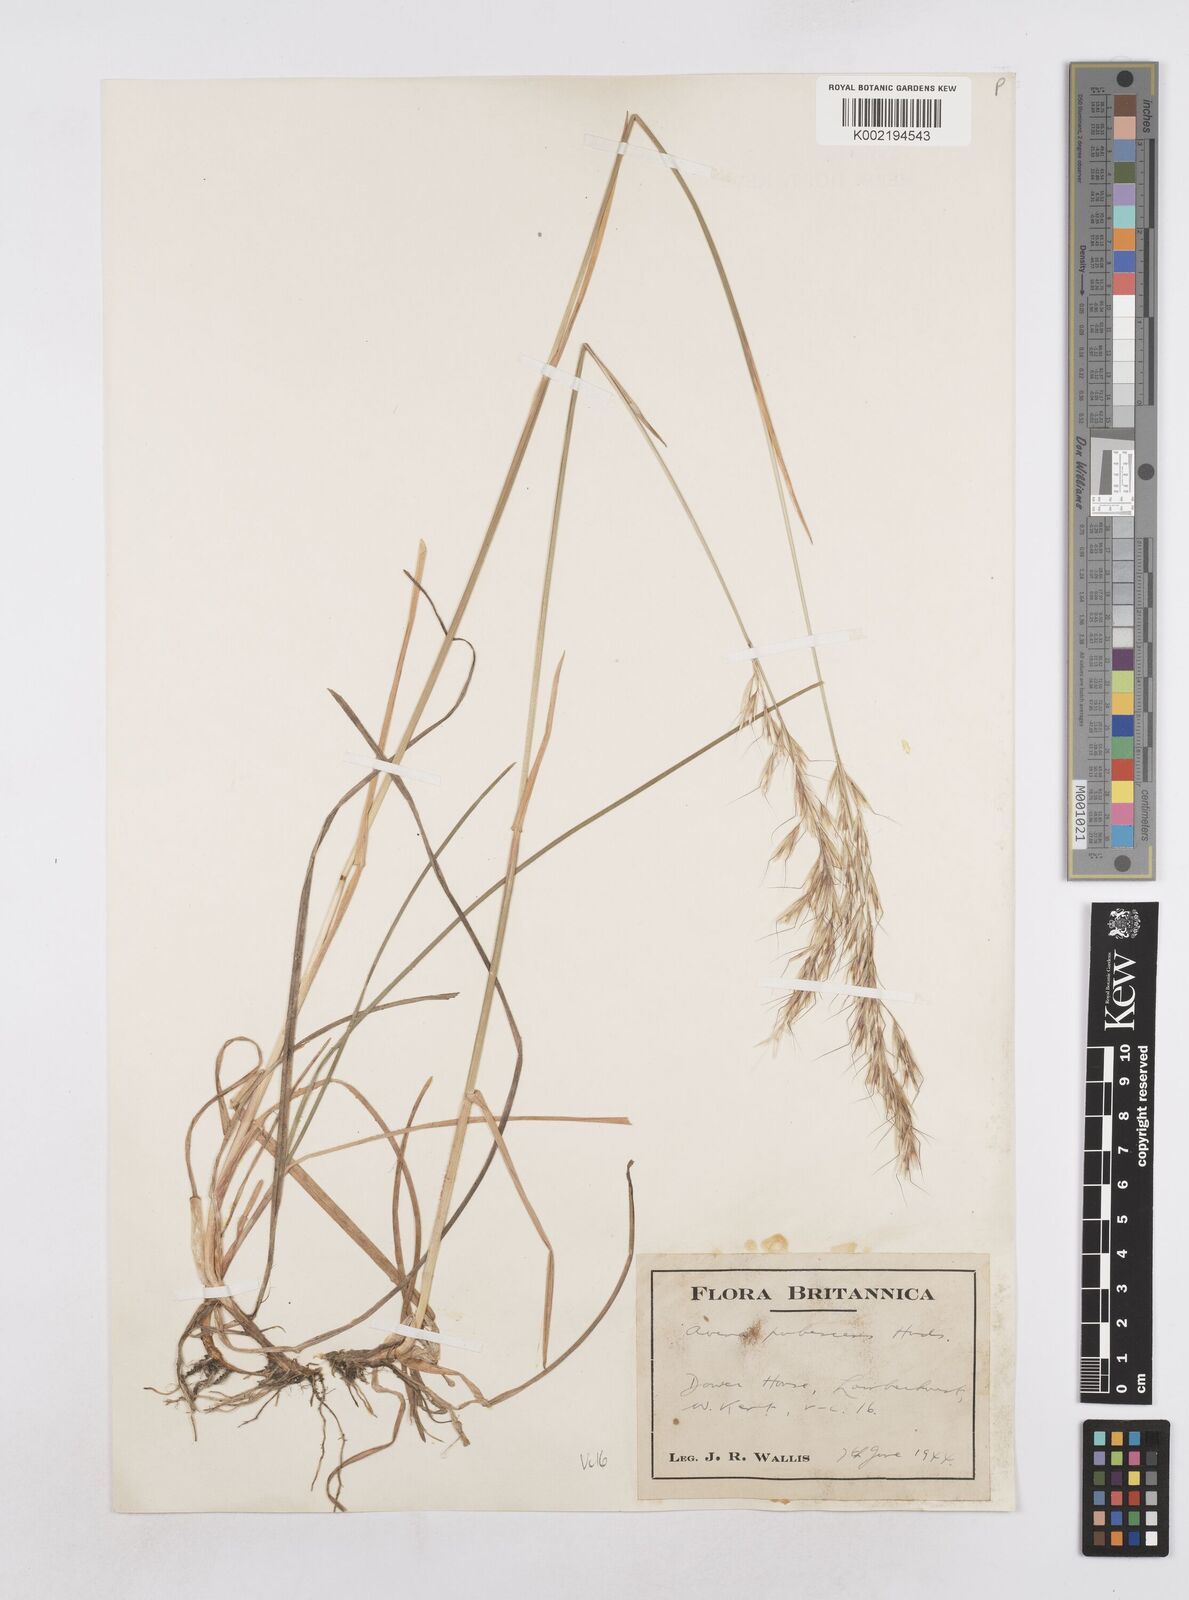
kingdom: Plantae
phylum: Tracheophyta
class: Liliopsida
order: Poales
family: Poaceae
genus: Avenula
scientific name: Avenula pubescens
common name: Downy alpine oatgrass
